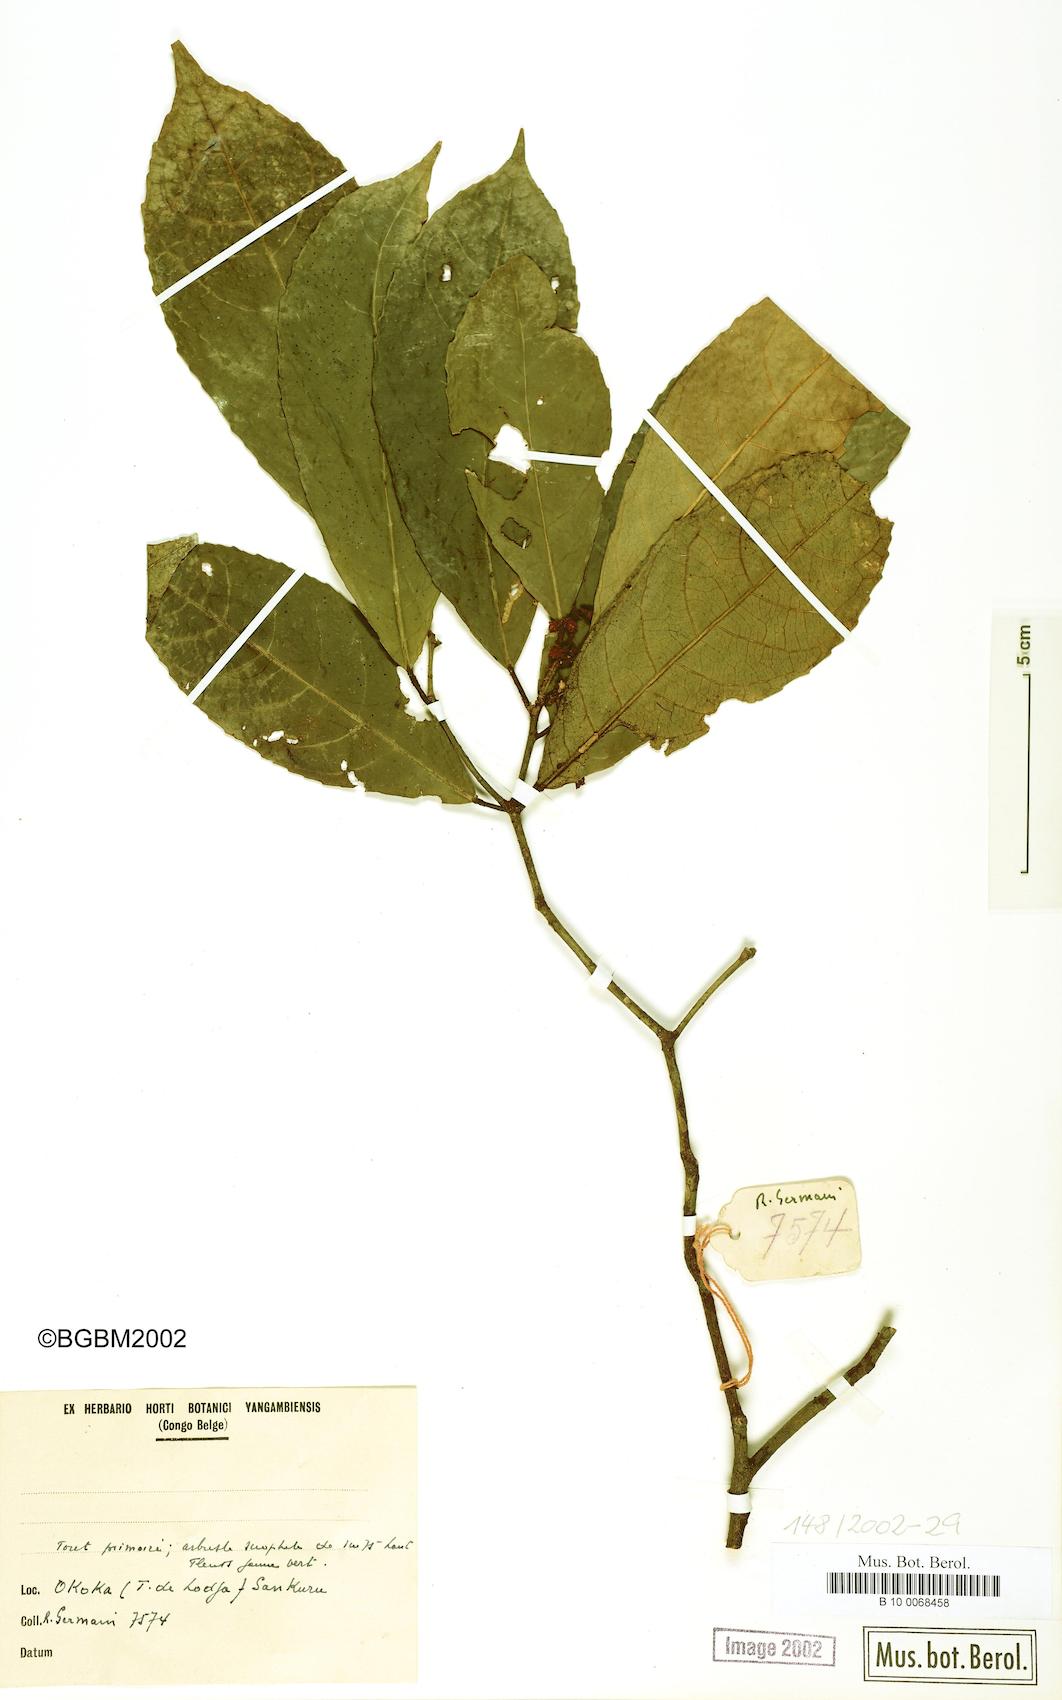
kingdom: Plantae
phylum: Tracheophyta
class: Magnoliopsida
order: Malpighiales
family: Violaceae
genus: Rinorea
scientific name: Rinorea
